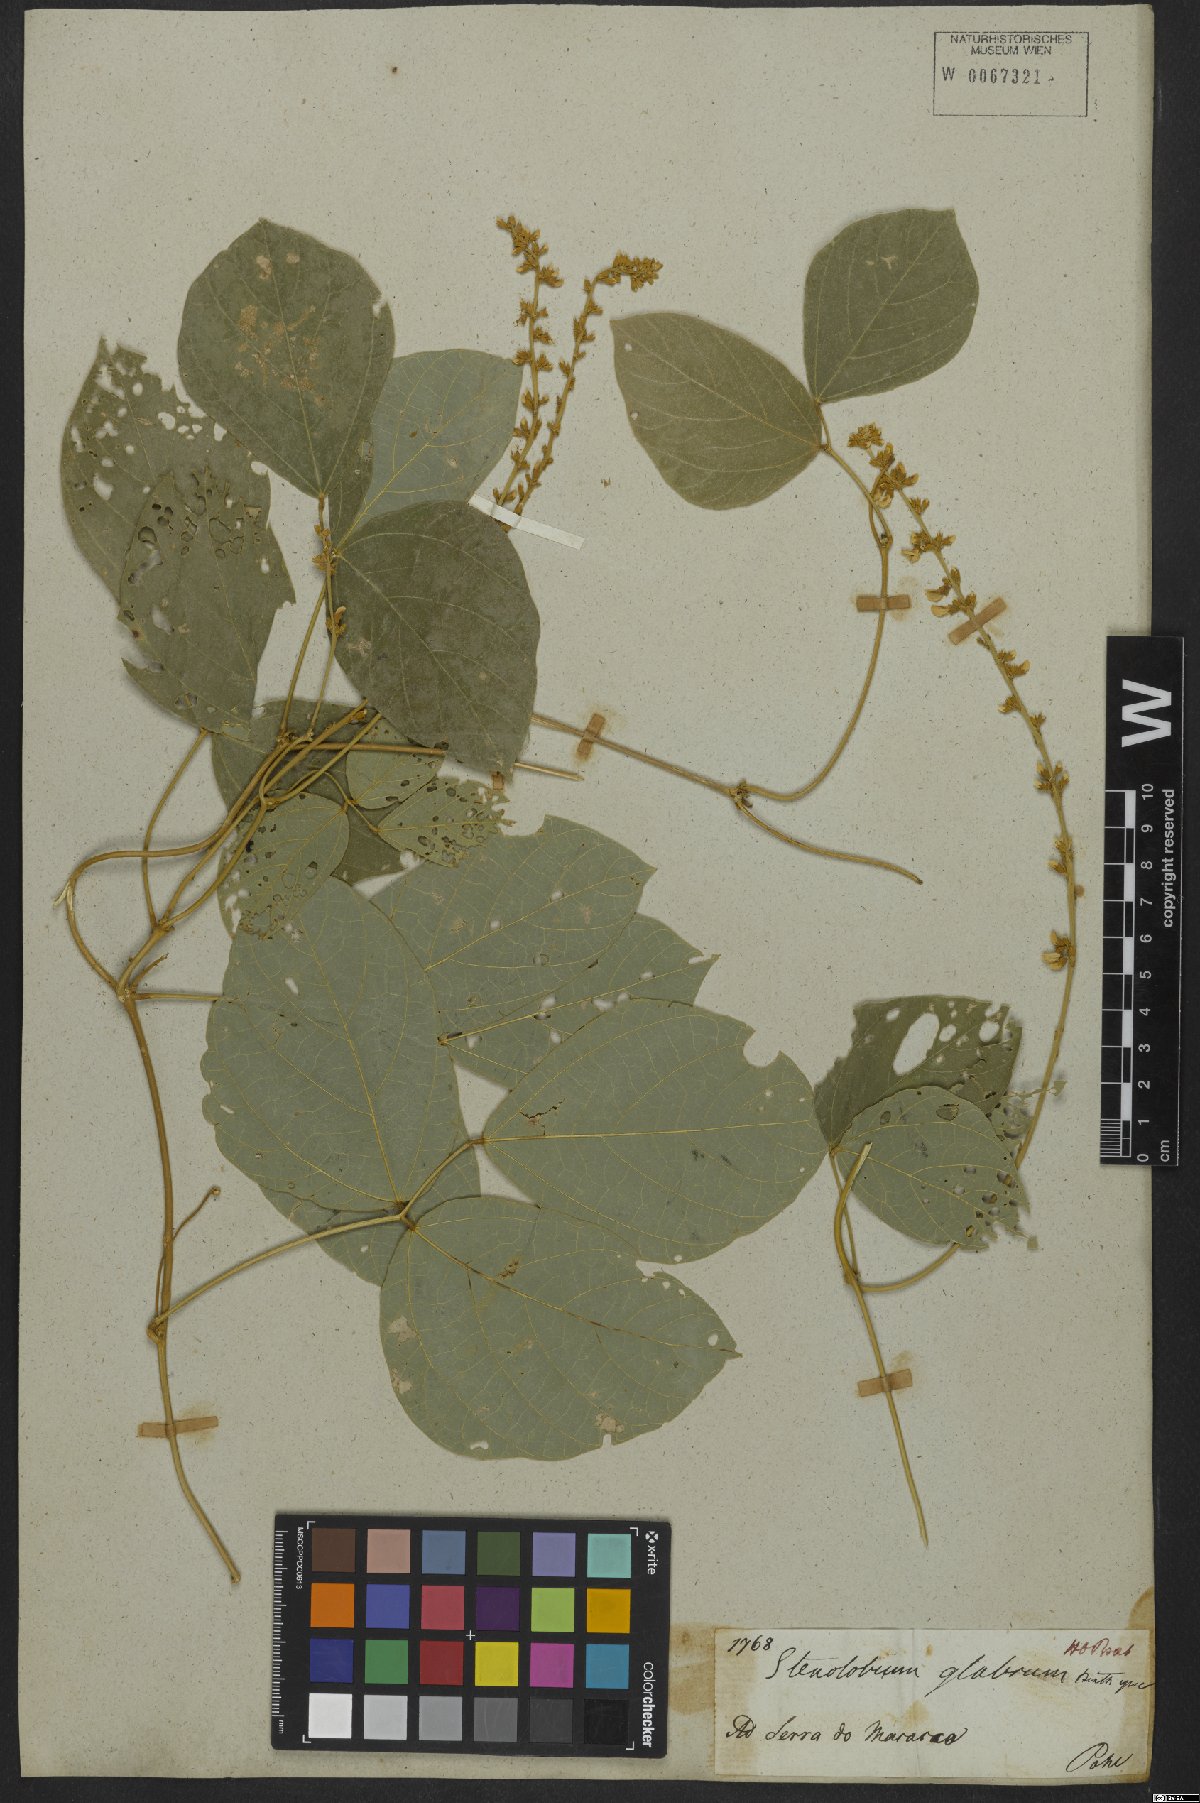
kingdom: Plantae
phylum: Tracheophyta
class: Magnoliopsida
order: Fabales
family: Fabaceae
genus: Calopogonium
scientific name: Calopogonium caeruleum
